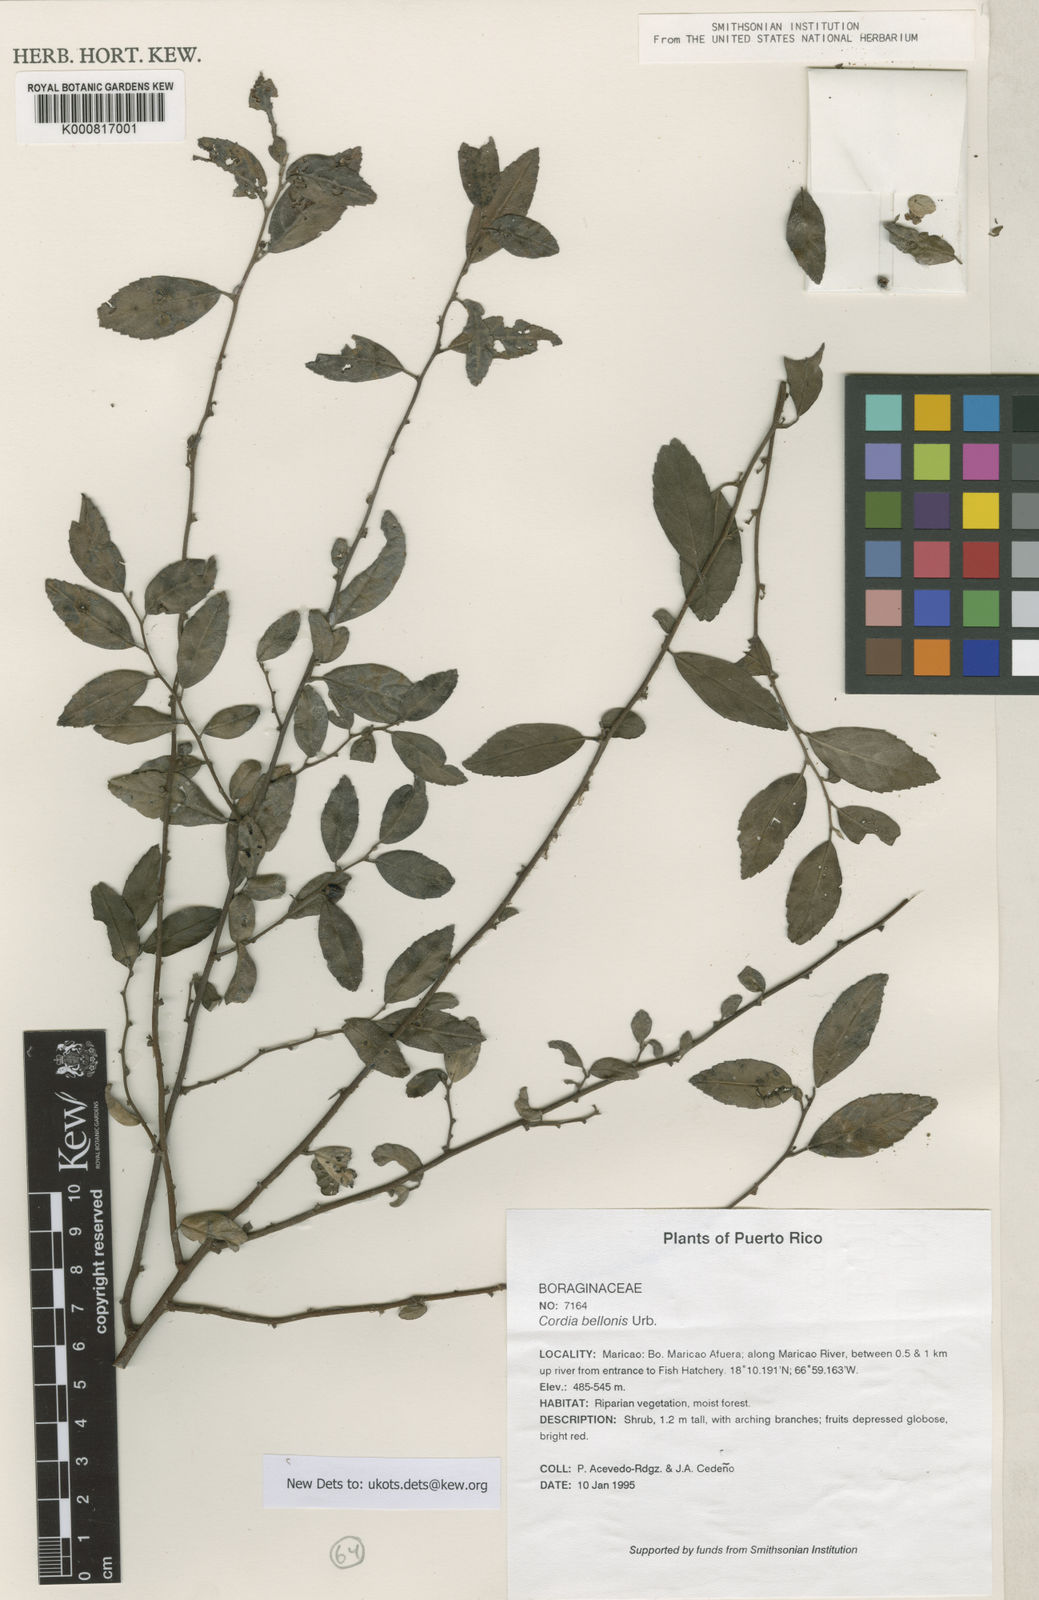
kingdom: Plantae
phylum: Tracheophyta
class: Magnoliopsida
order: Boraginales
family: Cordiaceae
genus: Varronia
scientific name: Varronia bellonis
